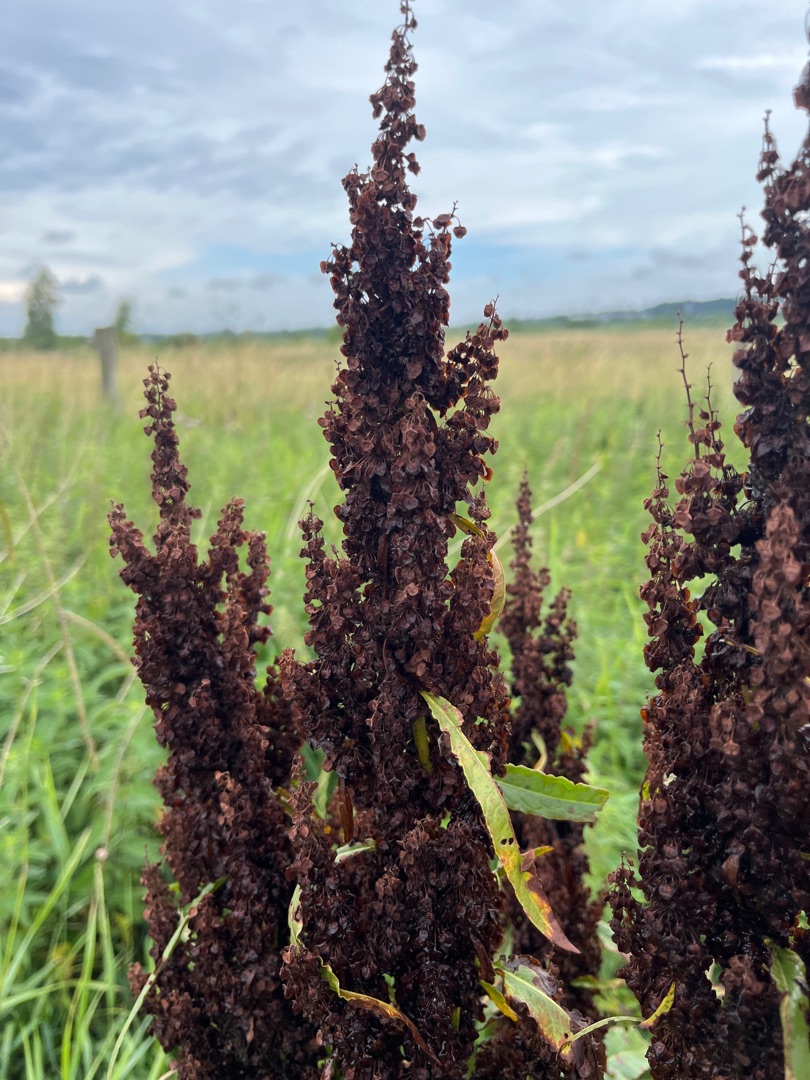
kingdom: Plantae
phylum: Tracheophyta
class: Magnoliopsida
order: Caryophyllales
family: Polygonaceae
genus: Rumex
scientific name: Rumex hydrolapathum
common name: Vand-skræppe
